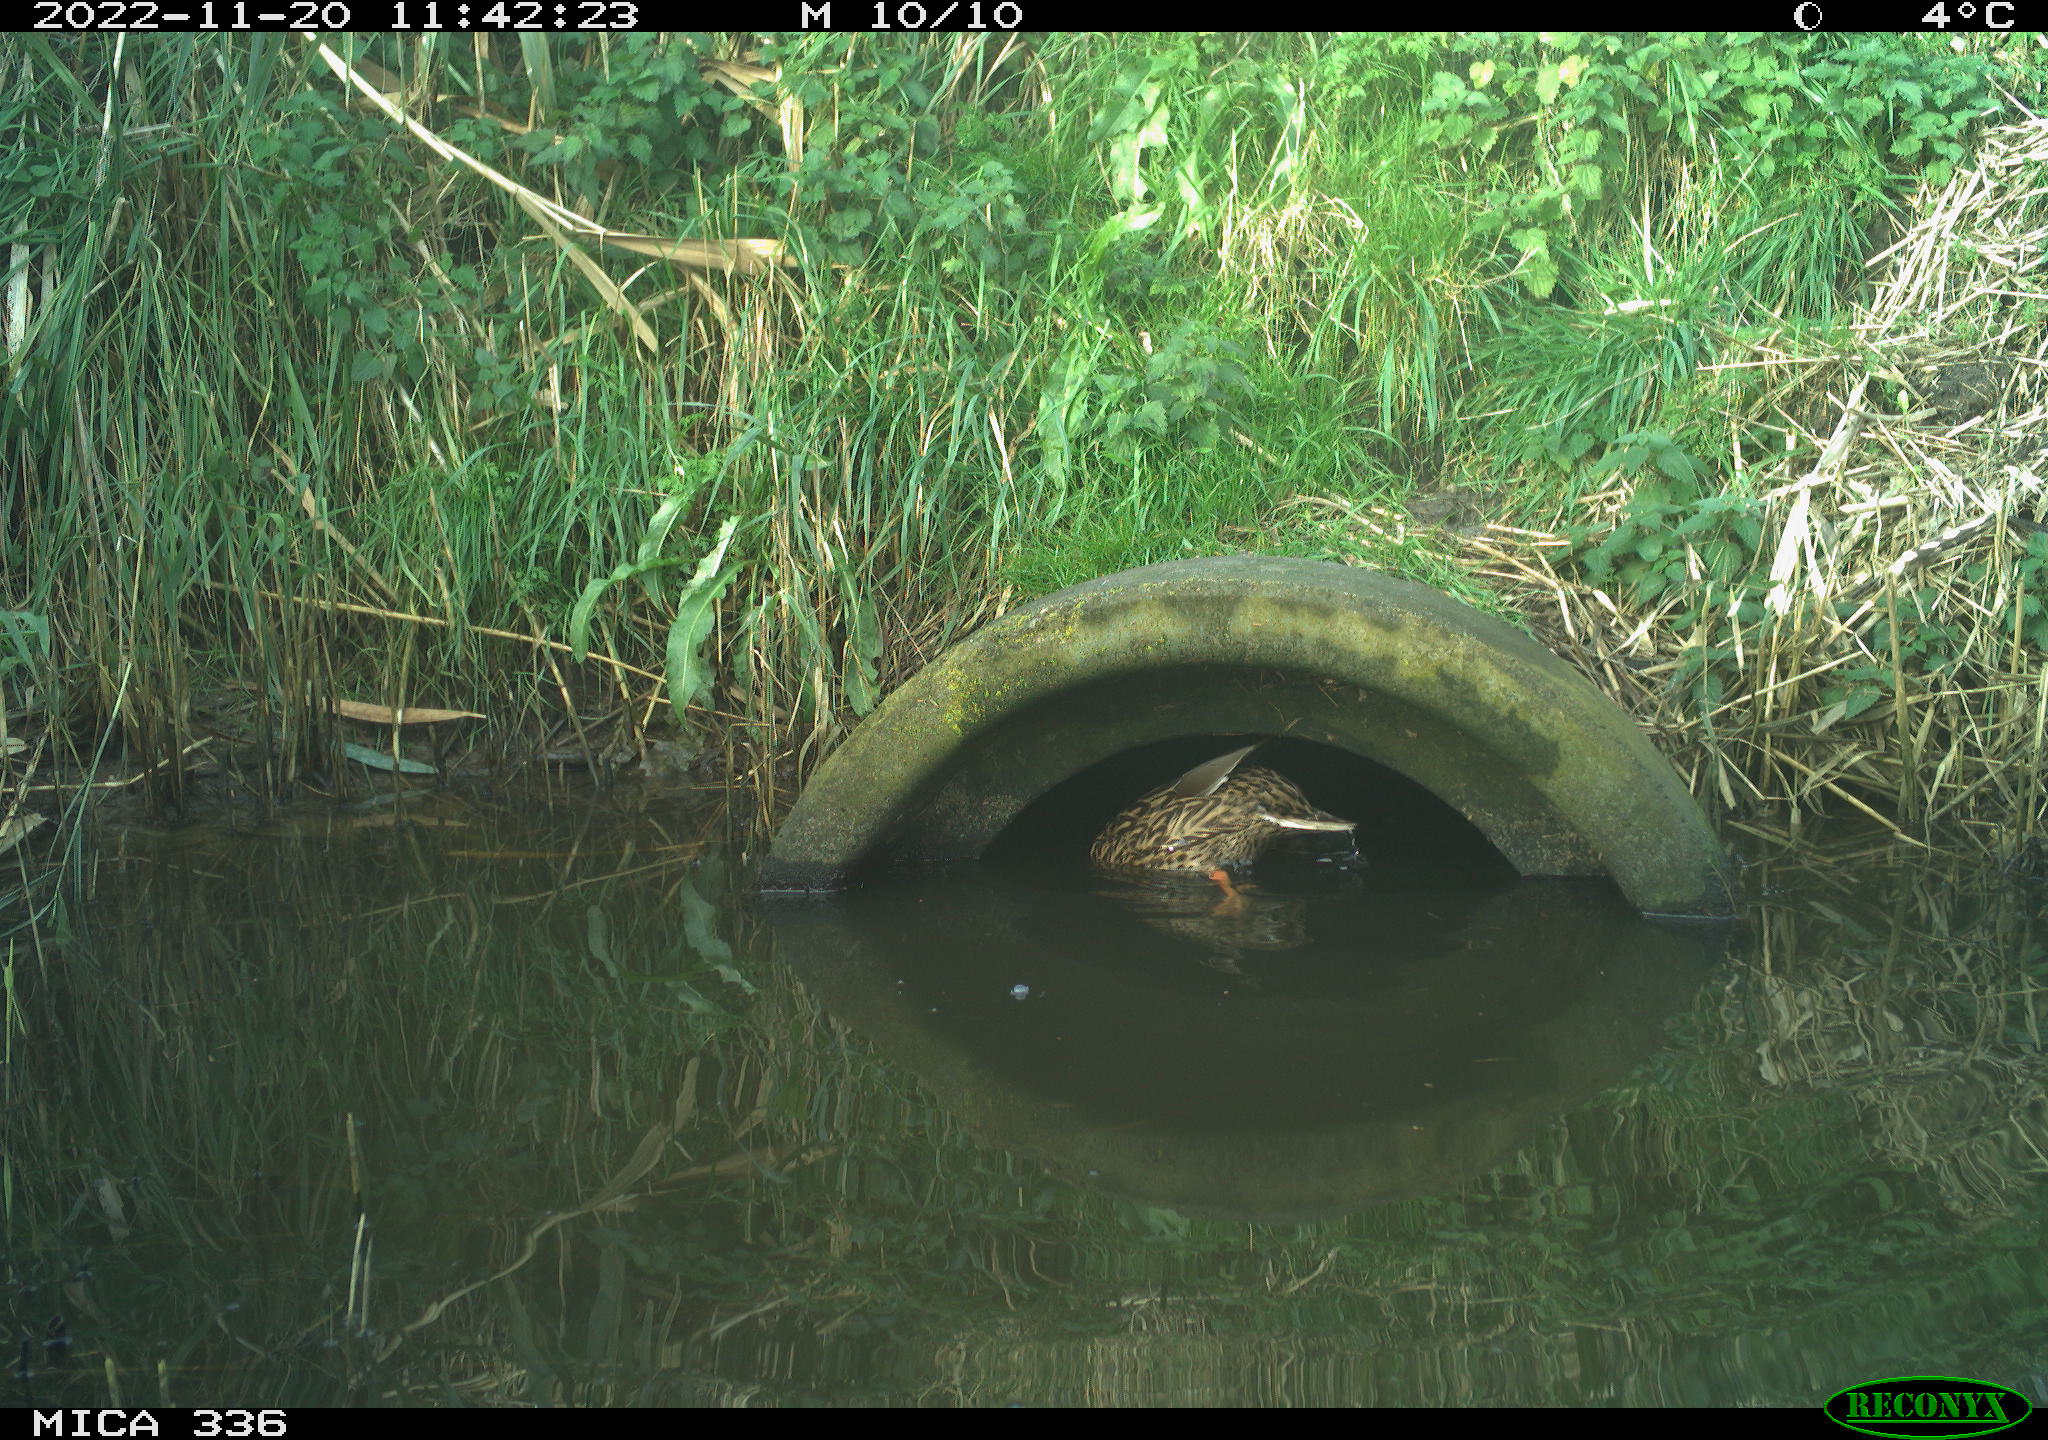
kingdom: Animalia
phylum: Chordata
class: Aves
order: Anseriformes
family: Anatidae
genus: Anas
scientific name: Anas platyrhynchos
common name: Mallard
